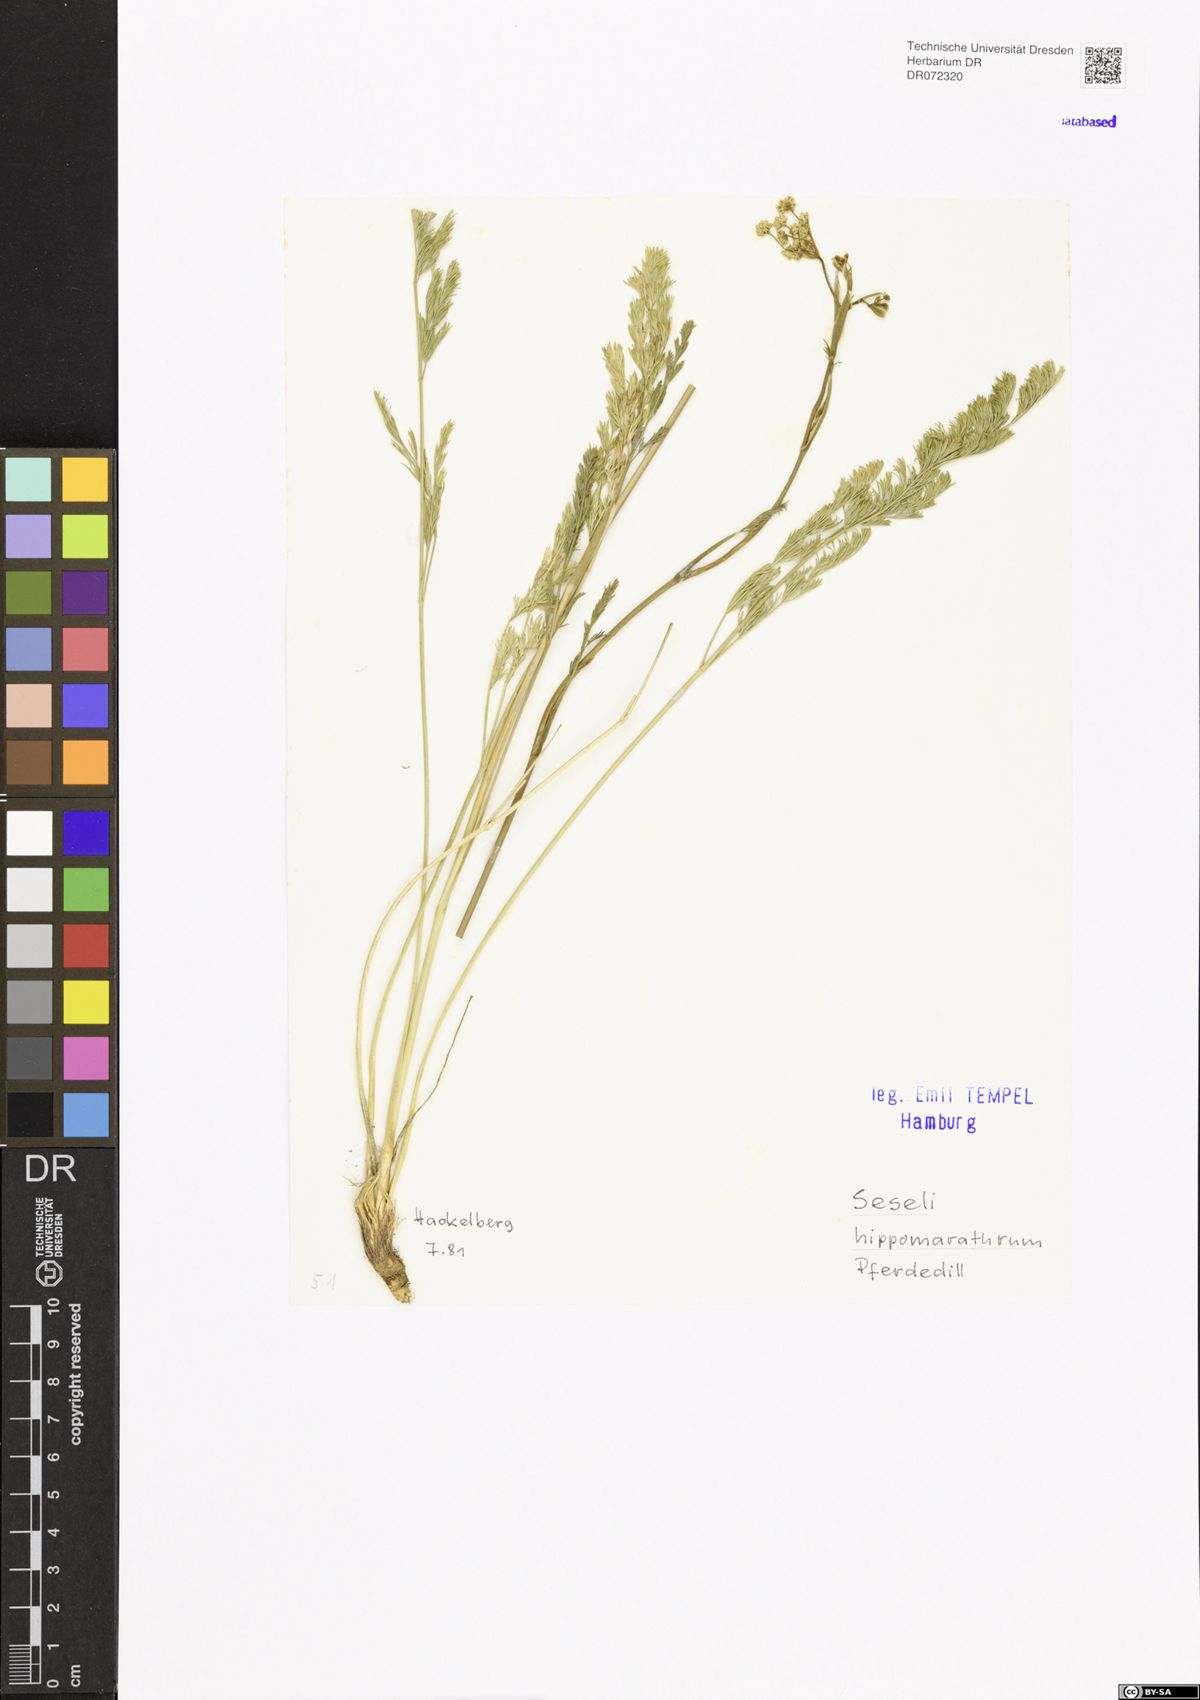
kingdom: Plantae
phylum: Tracheophyta
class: Magnoliopsida
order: Apiales
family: Apiaceae
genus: Hippomarathrum
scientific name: Hippomarathrum vulgare
